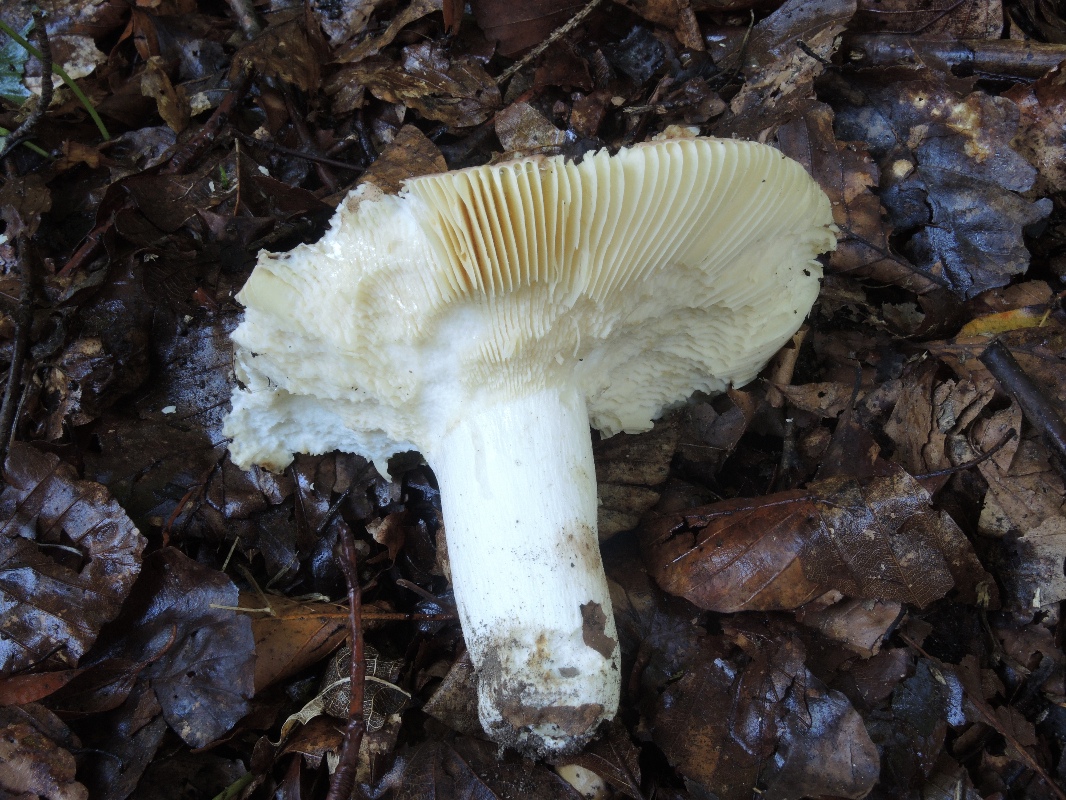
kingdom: Fungi
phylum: Basidiomycota
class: Agaricomycetes
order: Russulales
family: Russulaceae
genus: Russula
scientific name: Russula curtipes
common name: kortstokket skørhat
